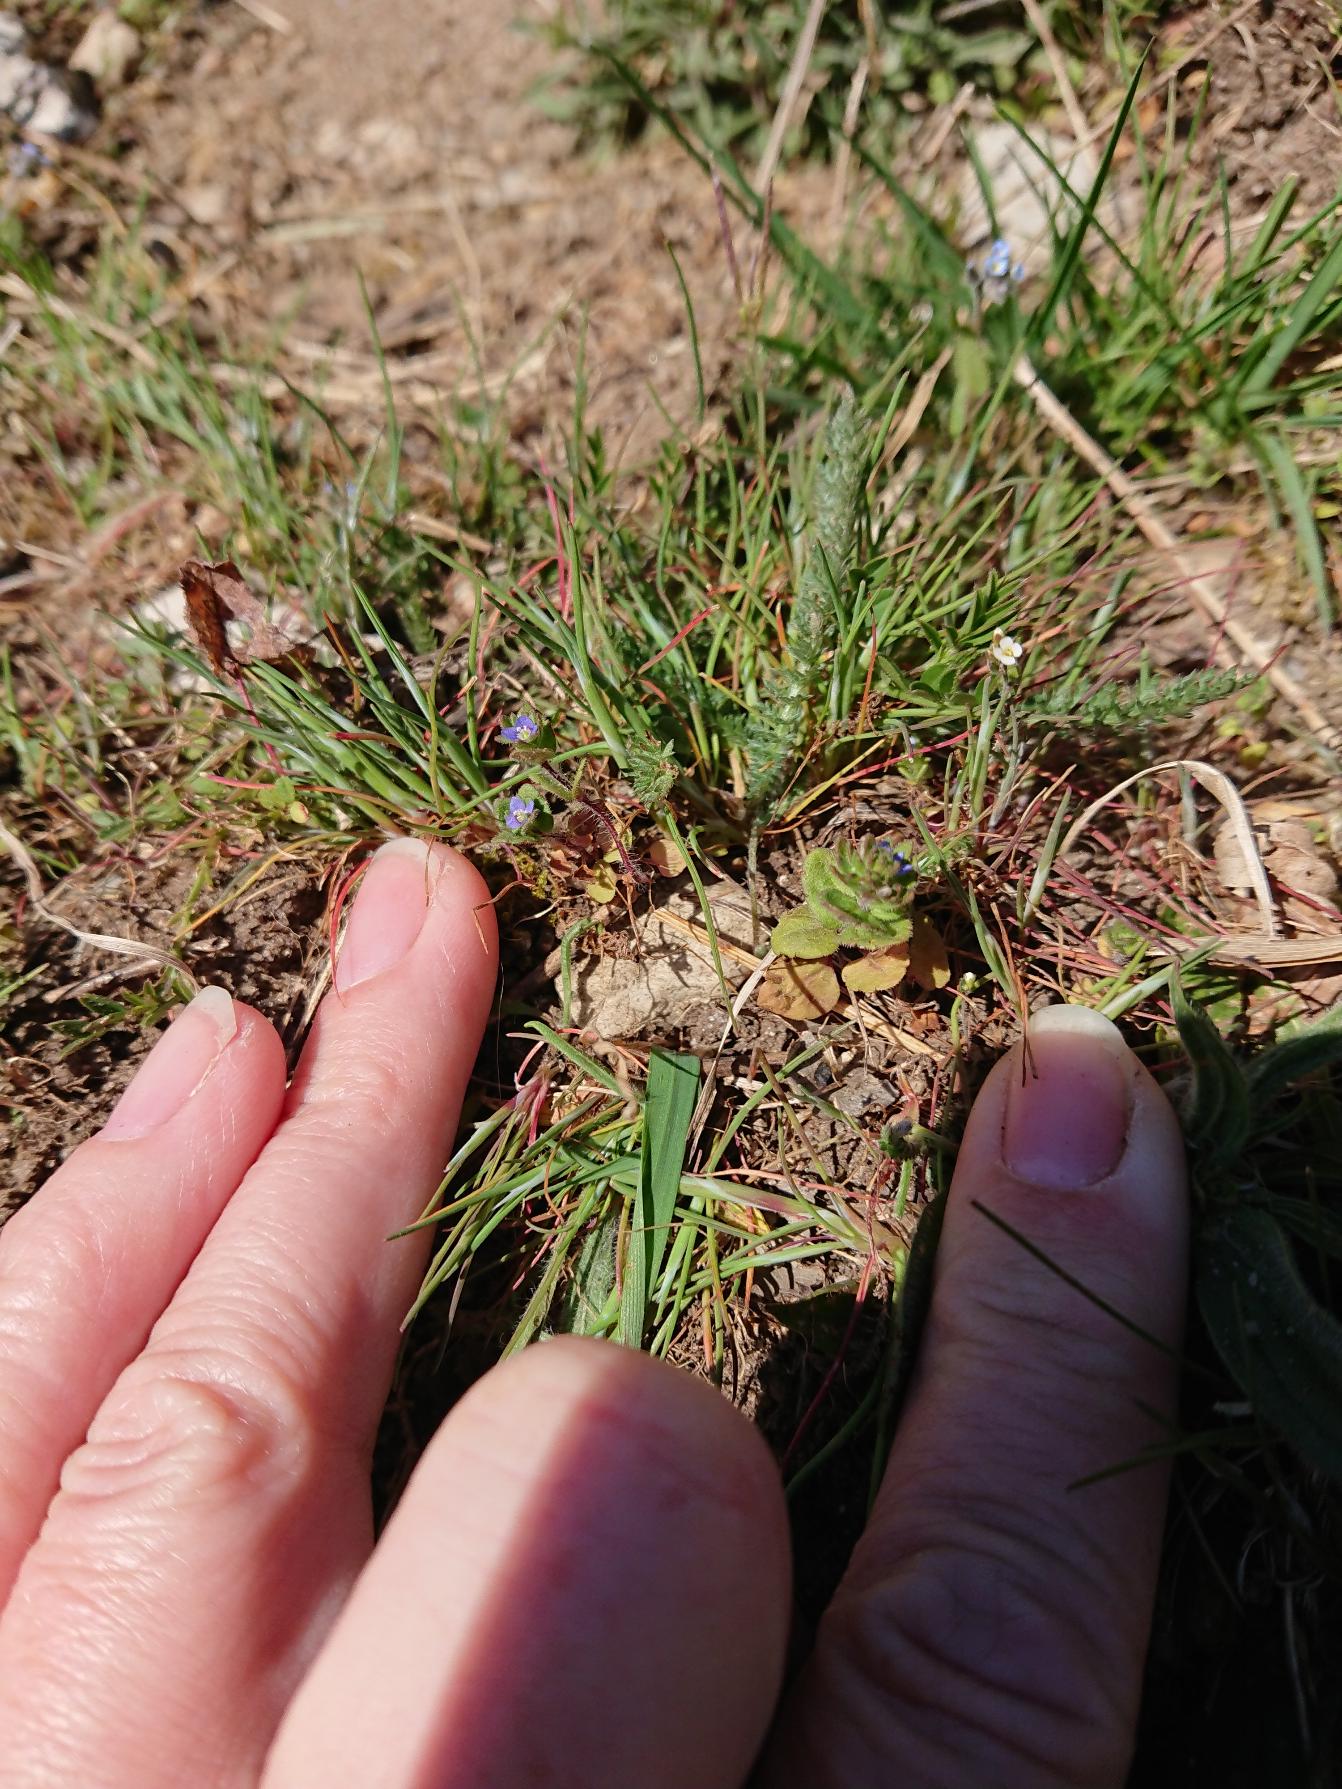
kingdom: Plantae
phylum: Tracheophyta
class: Magnoliopsida
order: Lamiales
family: Plantaginaceae
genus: Veronica
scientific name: Veronica arvensis
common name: Mark-ærenpris
